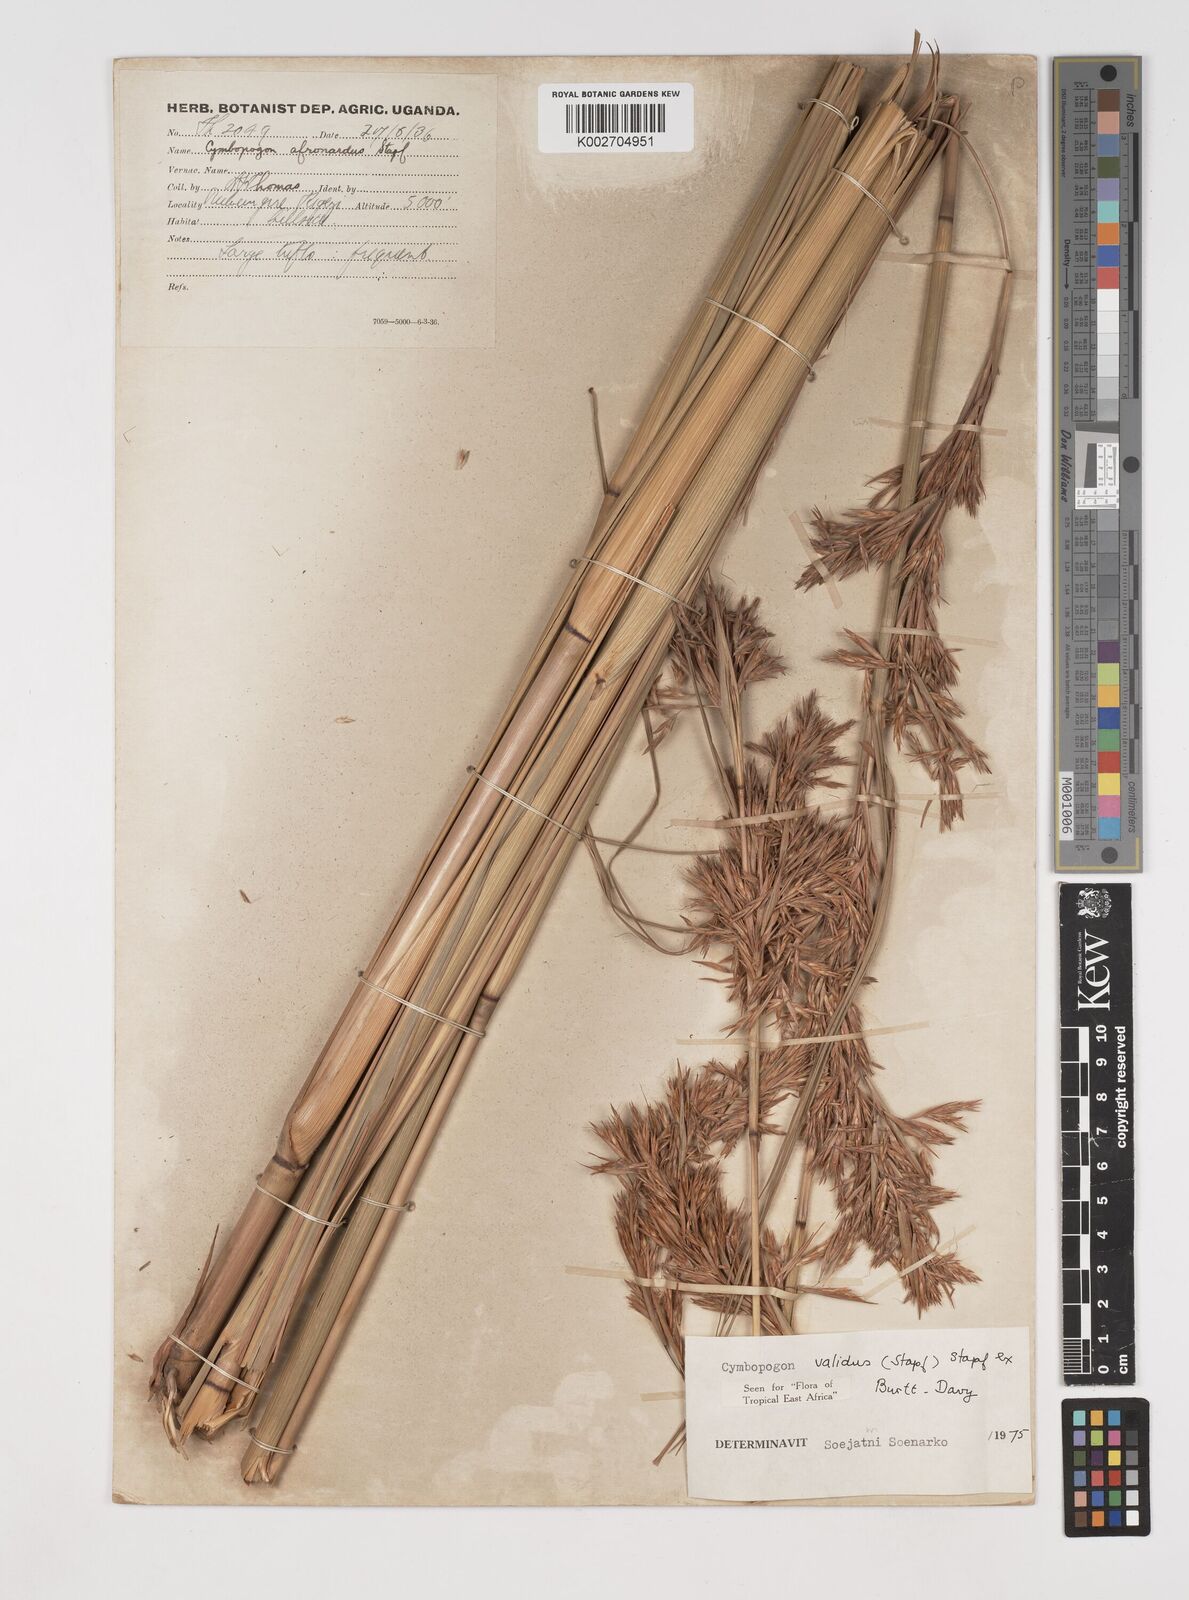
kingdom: Plantae
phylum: Tracheophyta
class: Liliopsida
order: Poales
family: Poaceae
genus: Cymbopogon
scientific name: Cymbopogon nardus
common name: Giant turpentine grass
